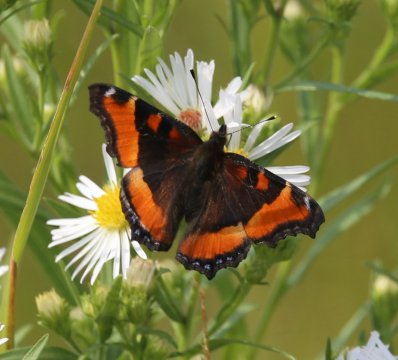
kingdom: Animalia
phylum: Arthropoda
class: Insecta
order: Lepidoptera
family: Nymphalidae
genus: Aglais
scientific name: Aglais milberti
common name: Milbert's Tortoiseshell
